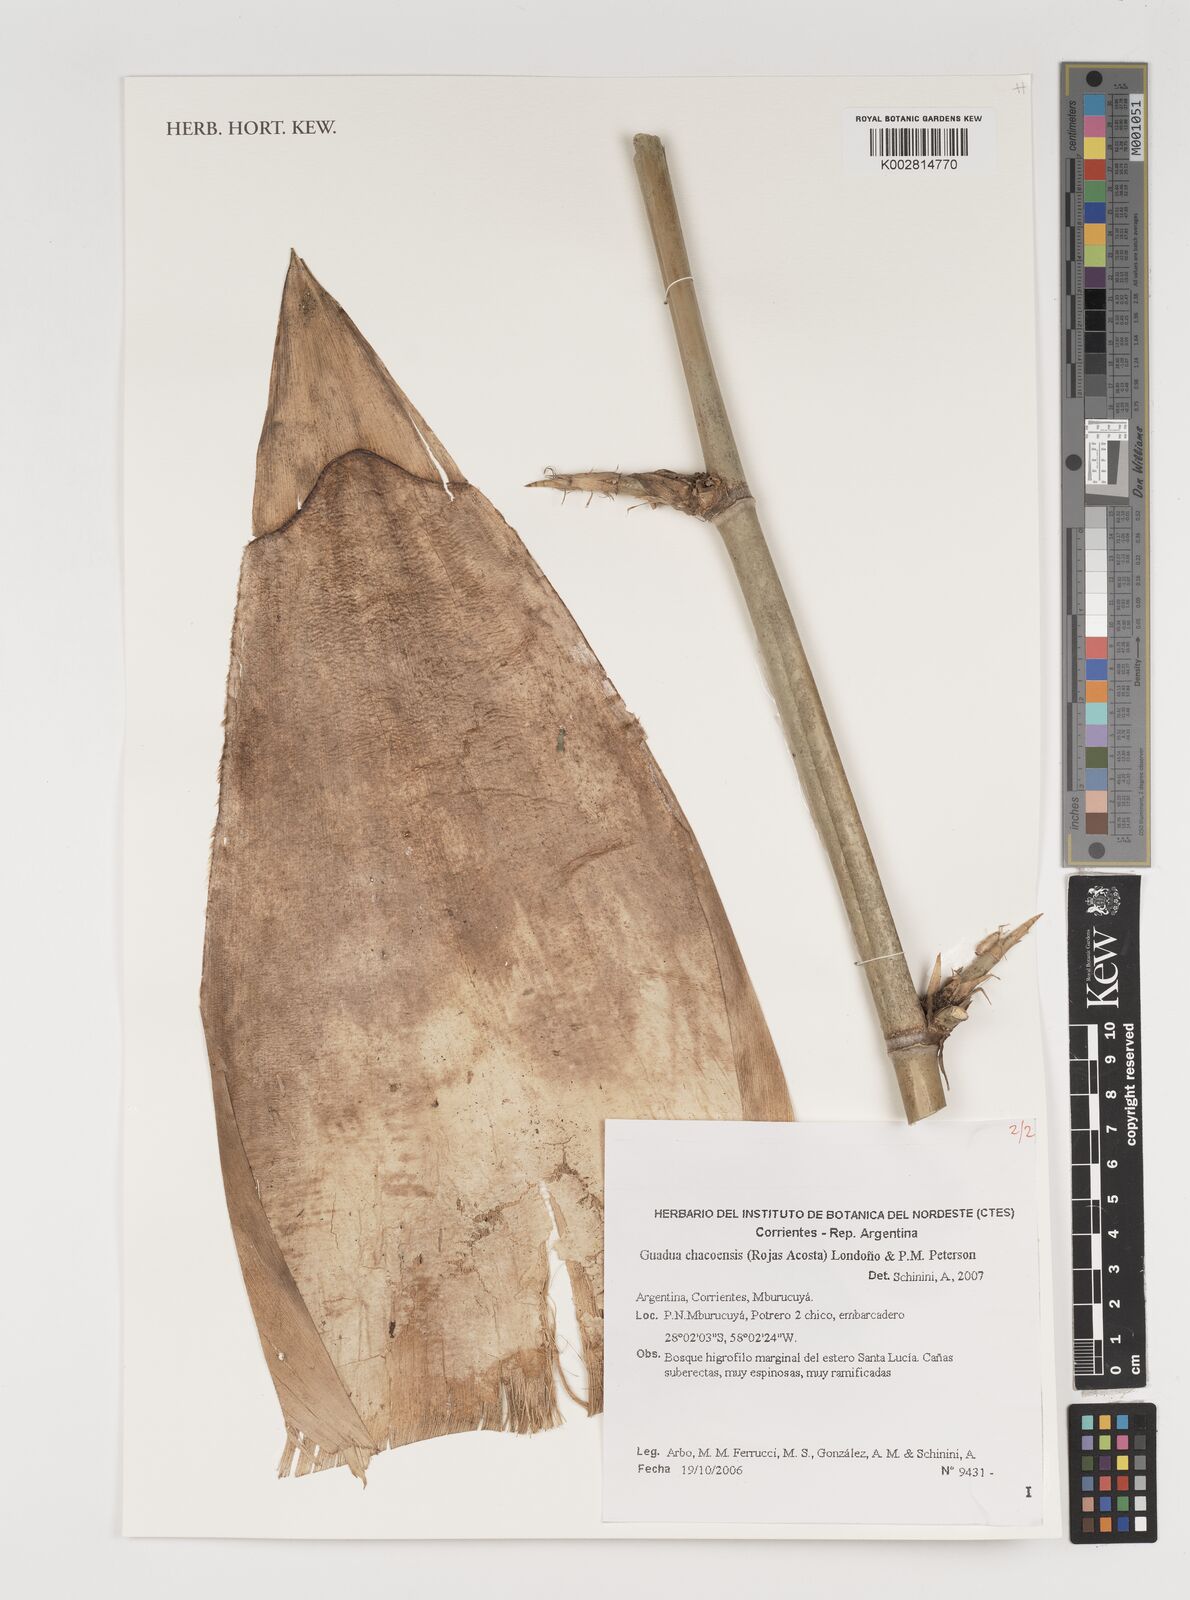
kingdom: Plantae
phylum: Tracheophyta
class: Liliopsida
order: Poales
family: Poaceae
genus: Guadua
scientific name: Guadua chacoensis
